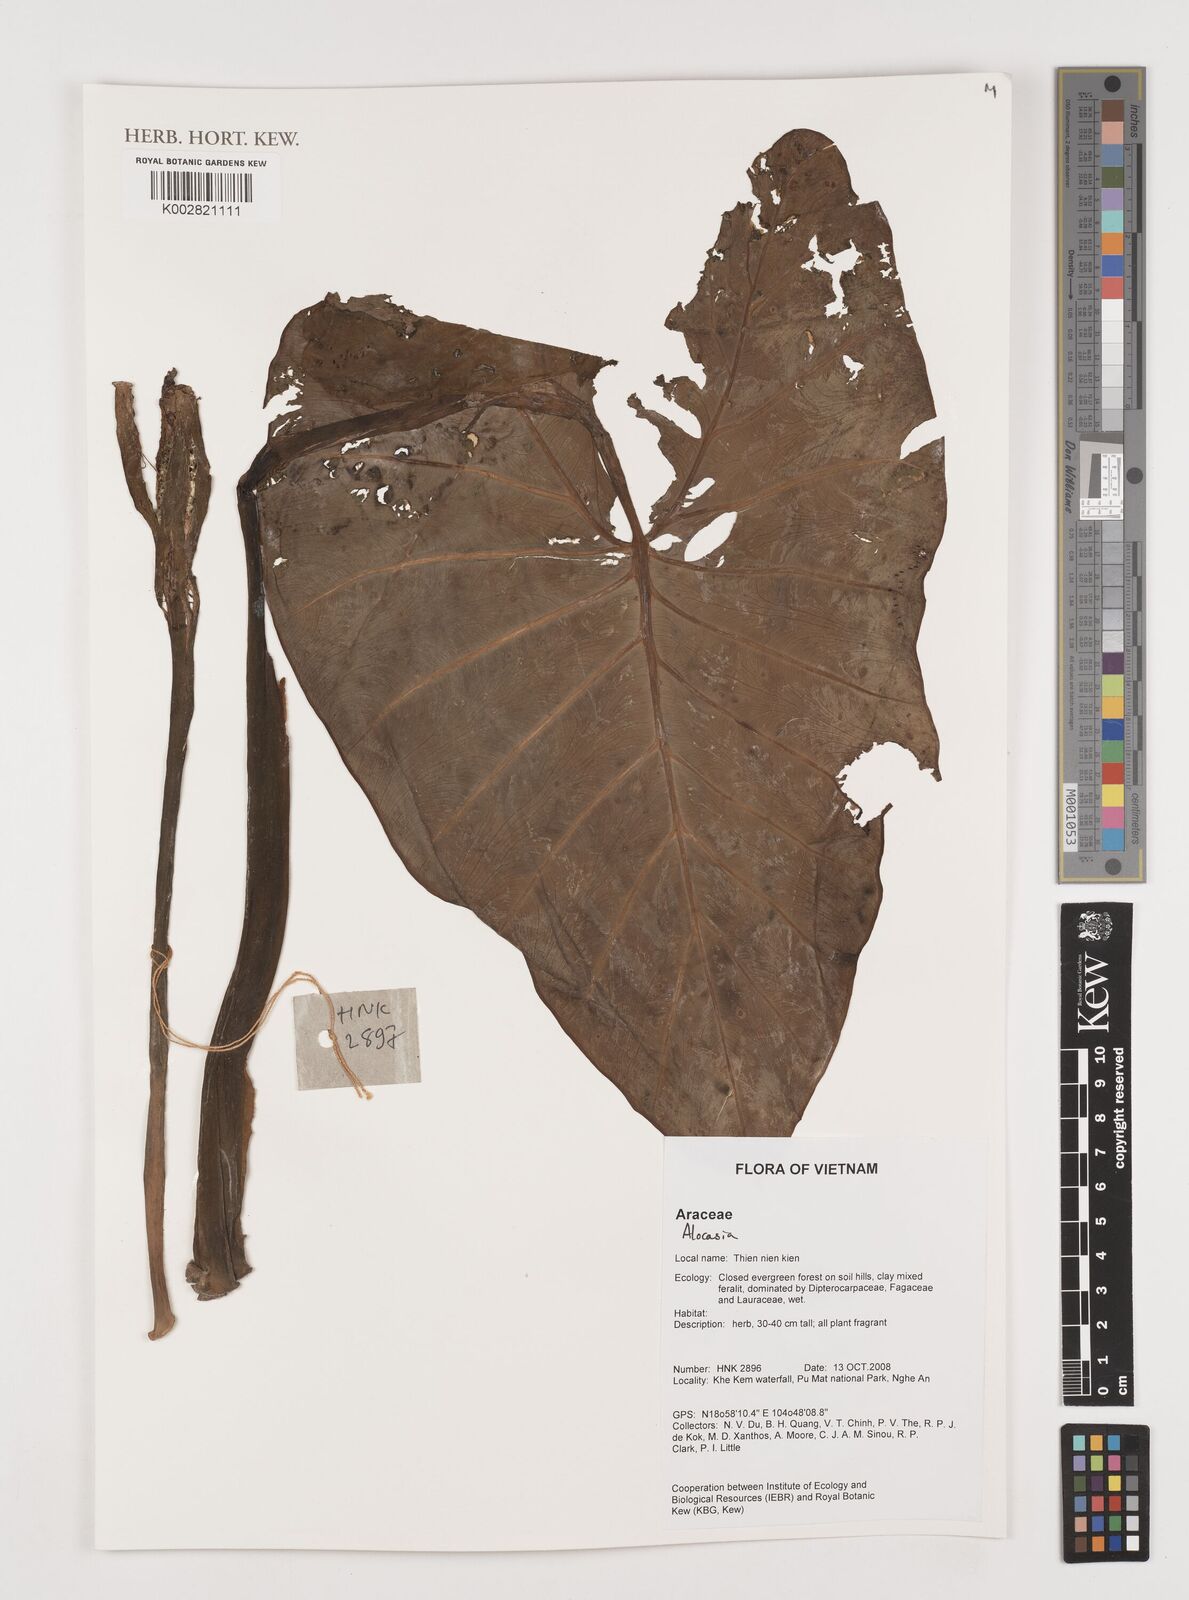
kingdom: Plantae
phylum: Tracheophyta
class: Liliopsida
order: Alismatales
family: Araceae
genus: Alocasia
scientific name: Alocasia
